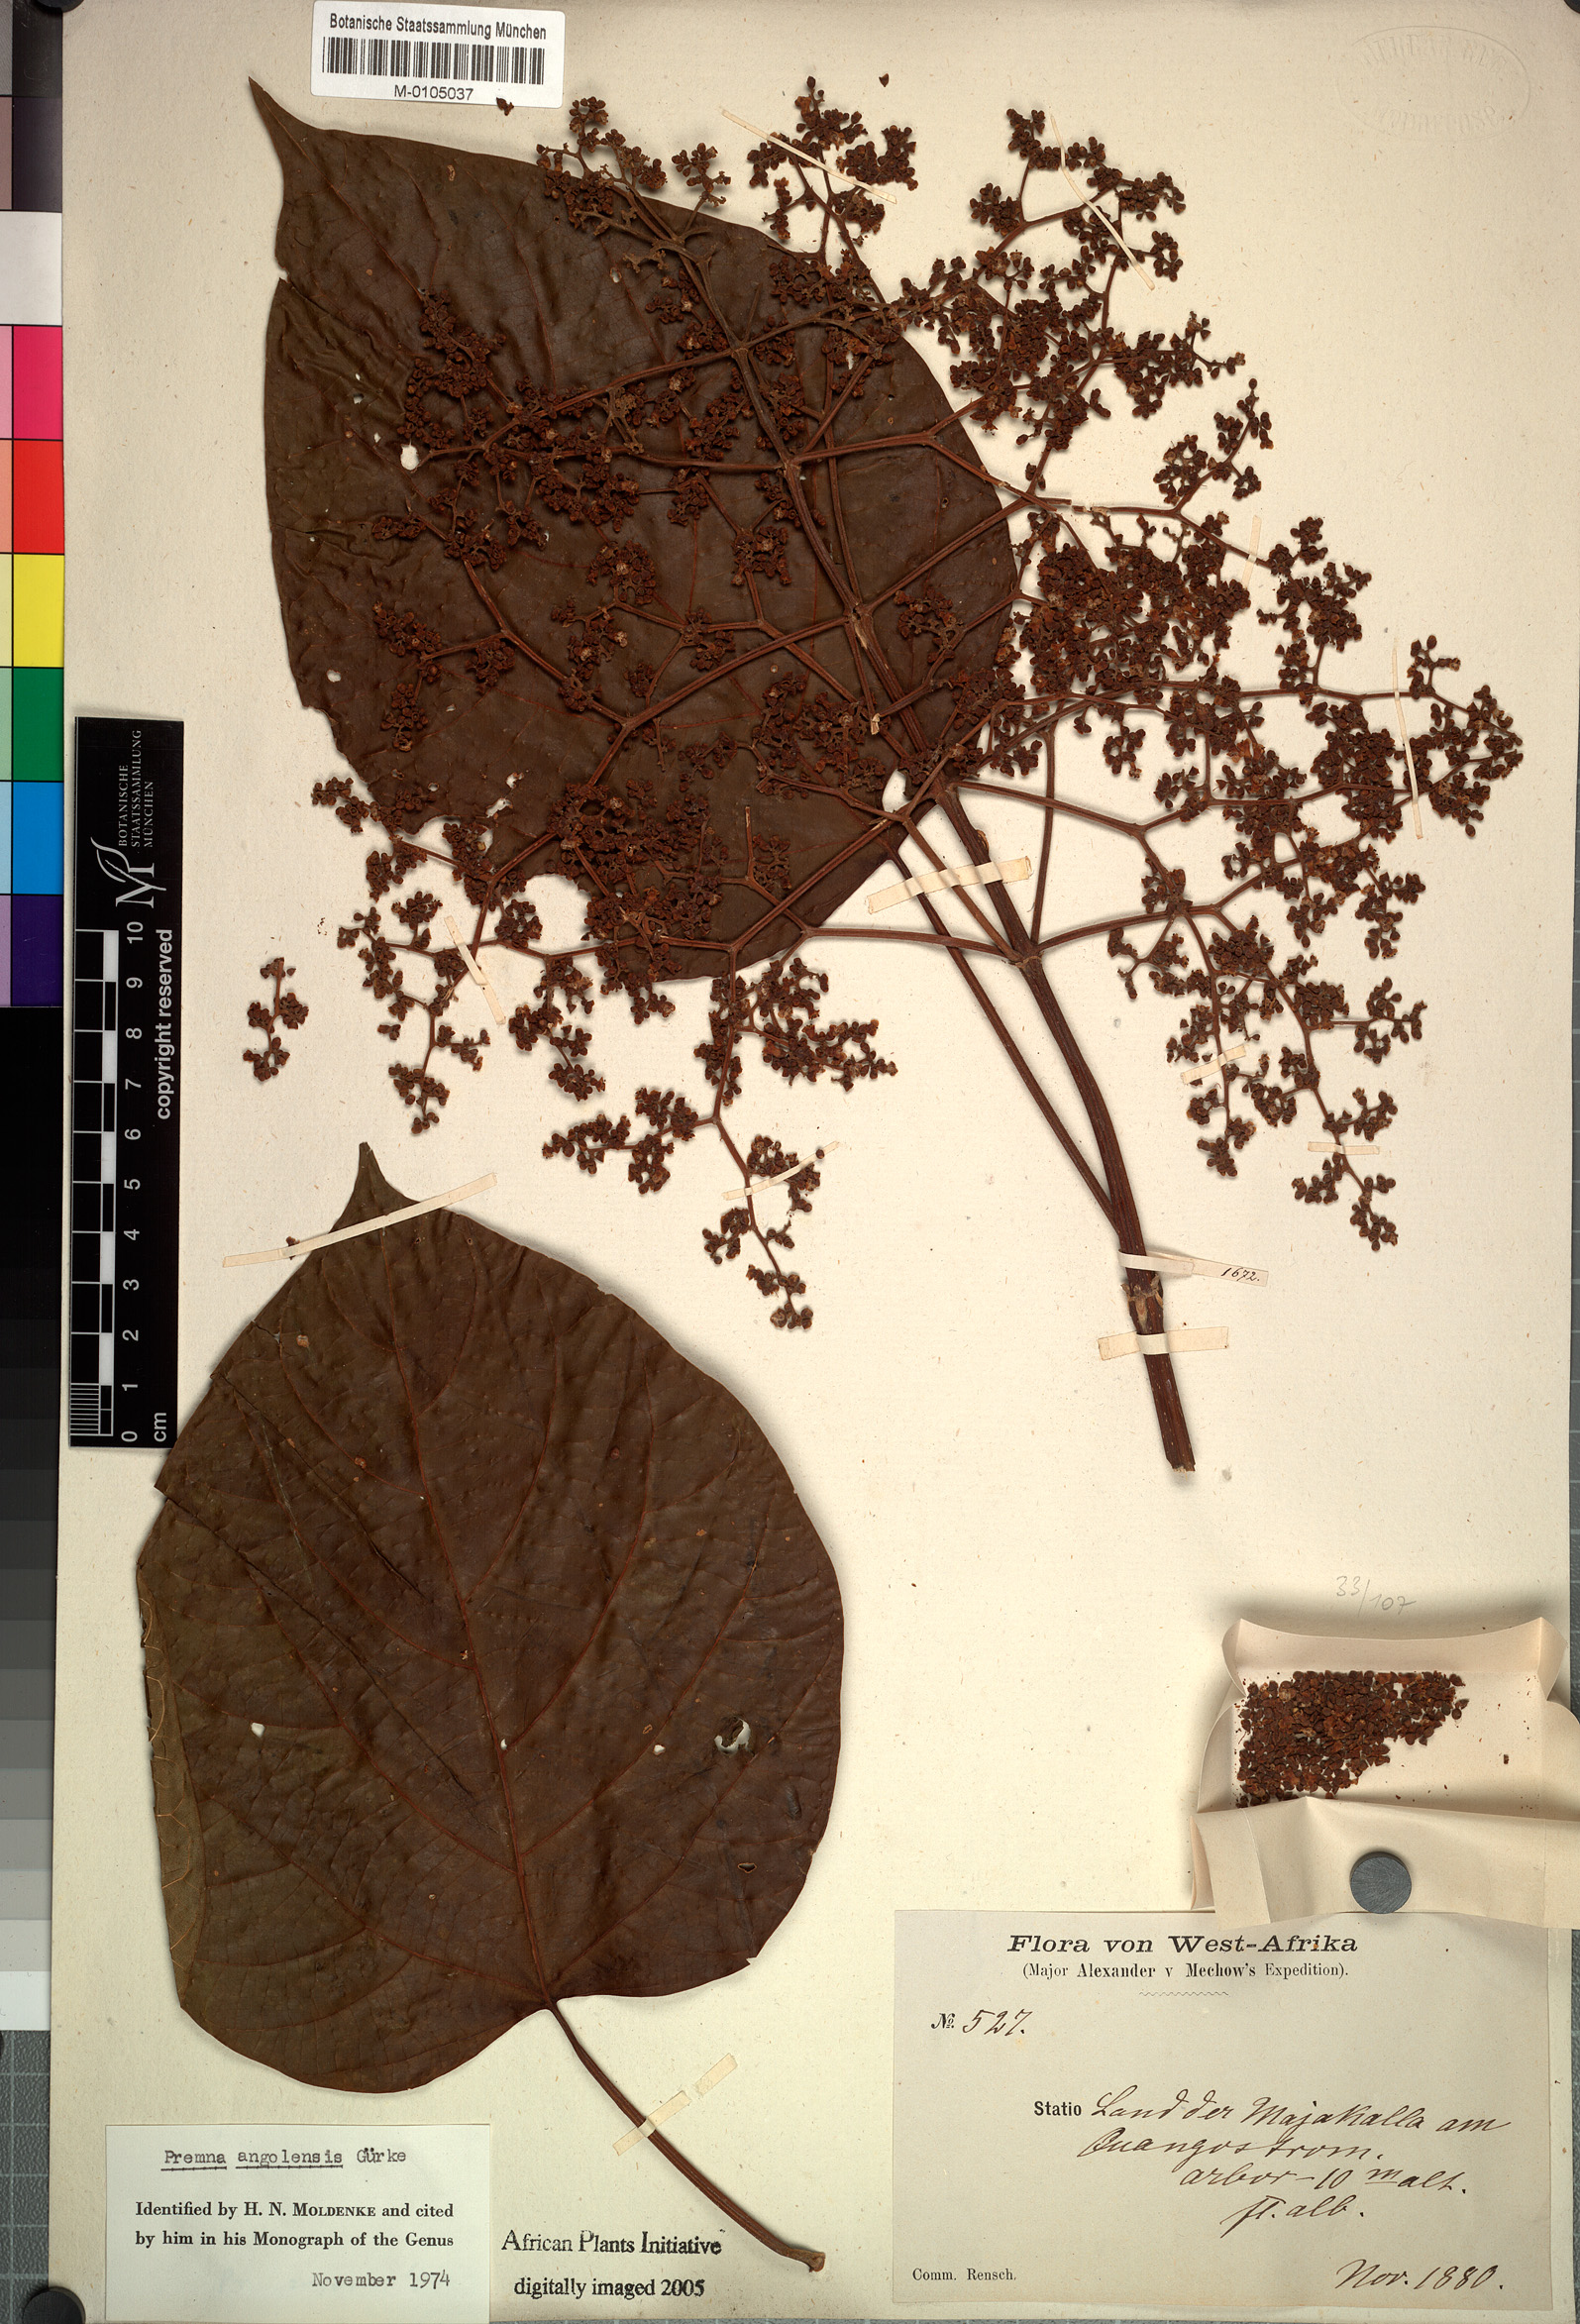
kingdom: Plantae
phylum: Tracheophyta
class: Magnoliopsida
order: Lamiales
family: Lamiaceae
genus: Premna
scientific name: Premna angolensis
